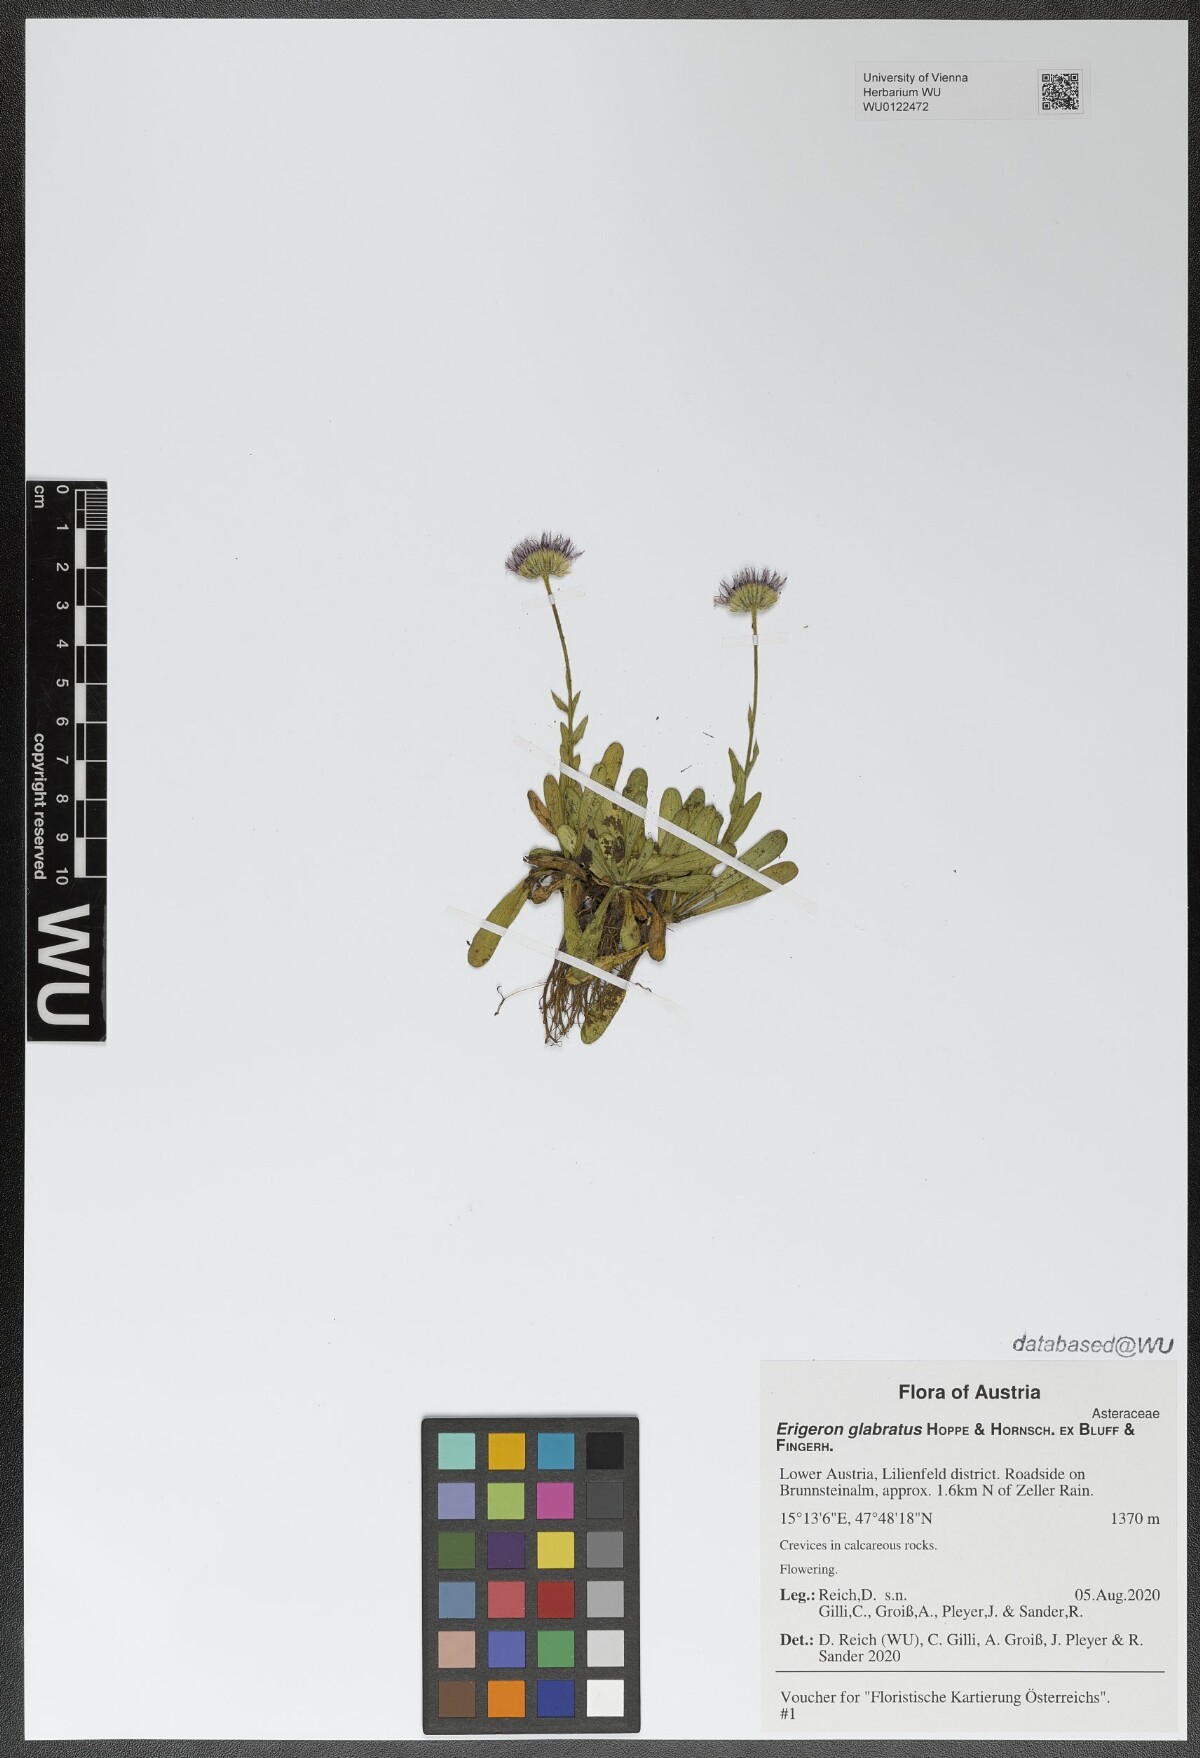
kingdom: Plantae
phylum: Tracheophyta
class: Magnoliopsida
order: Asterales
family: Asteraceae
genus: Erigeron
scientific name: Erigeron glabratus
